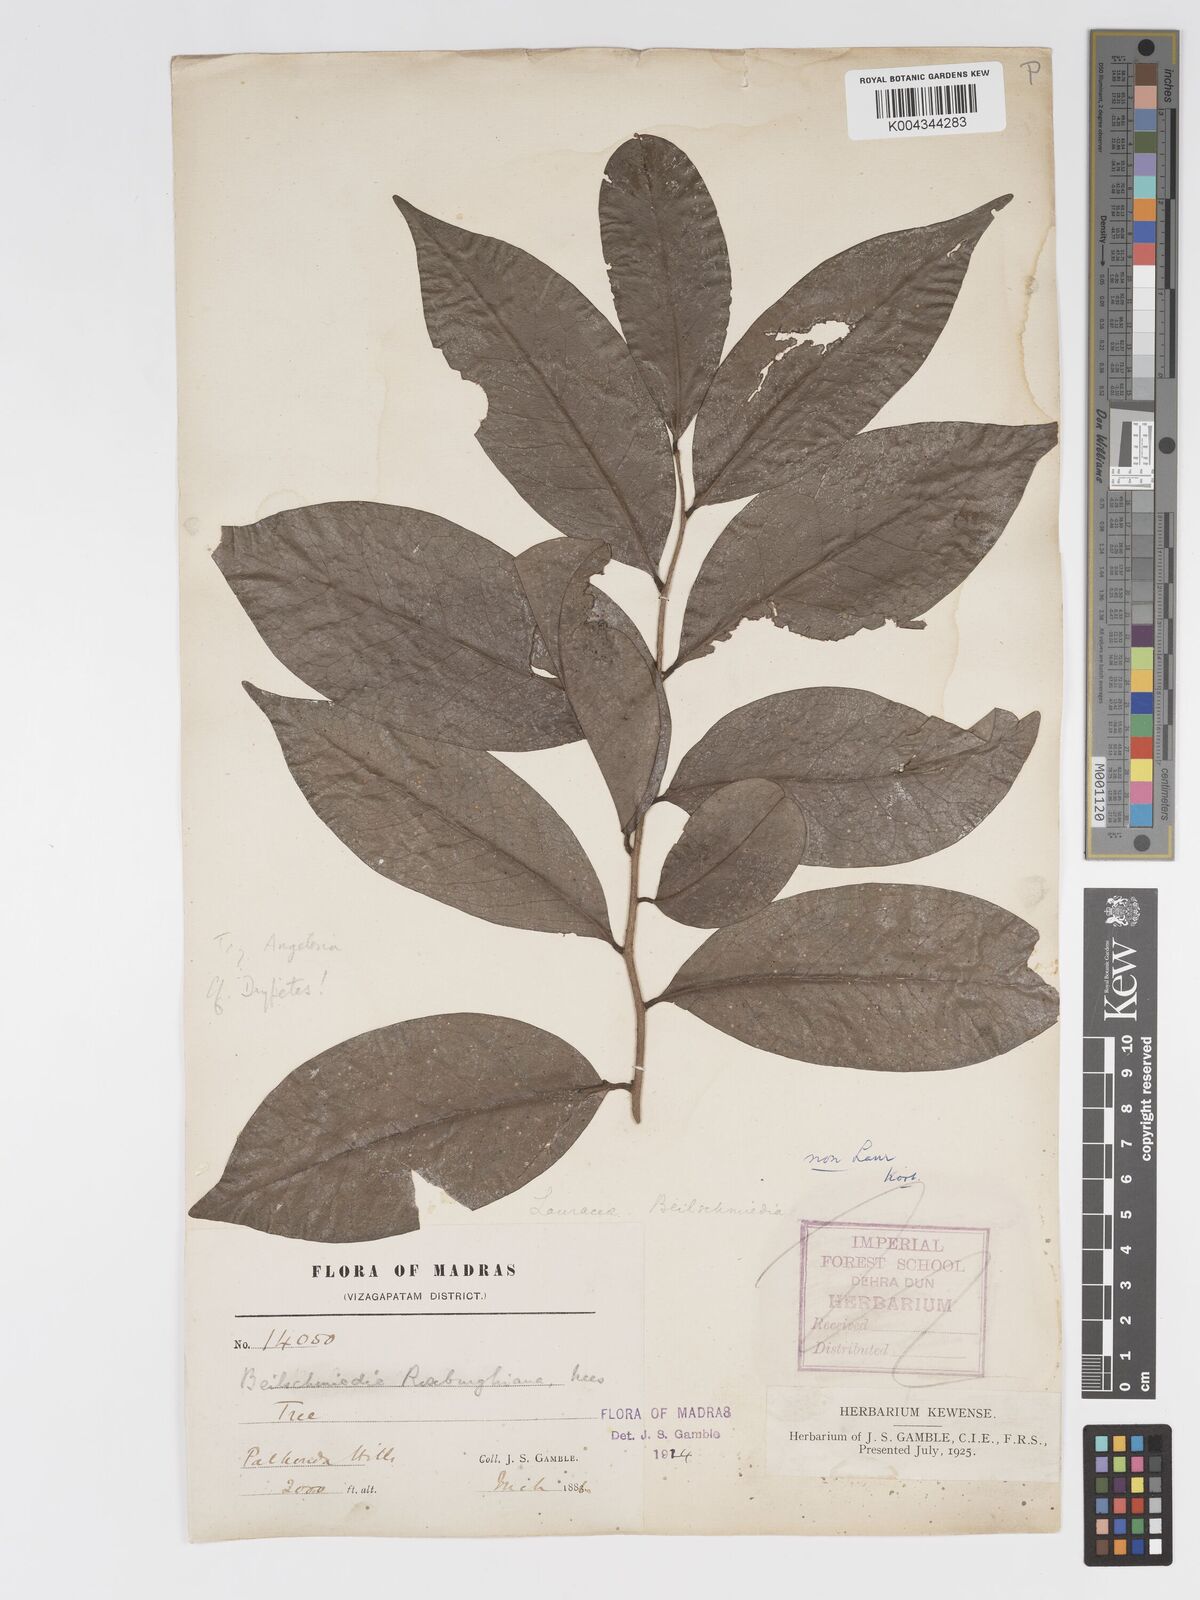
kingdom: Plantae
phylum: Tracheophyta
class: Magnoliopsida
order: Malpighiales
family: Putranjivaceae
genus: Drypetes
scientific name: Drypetes
